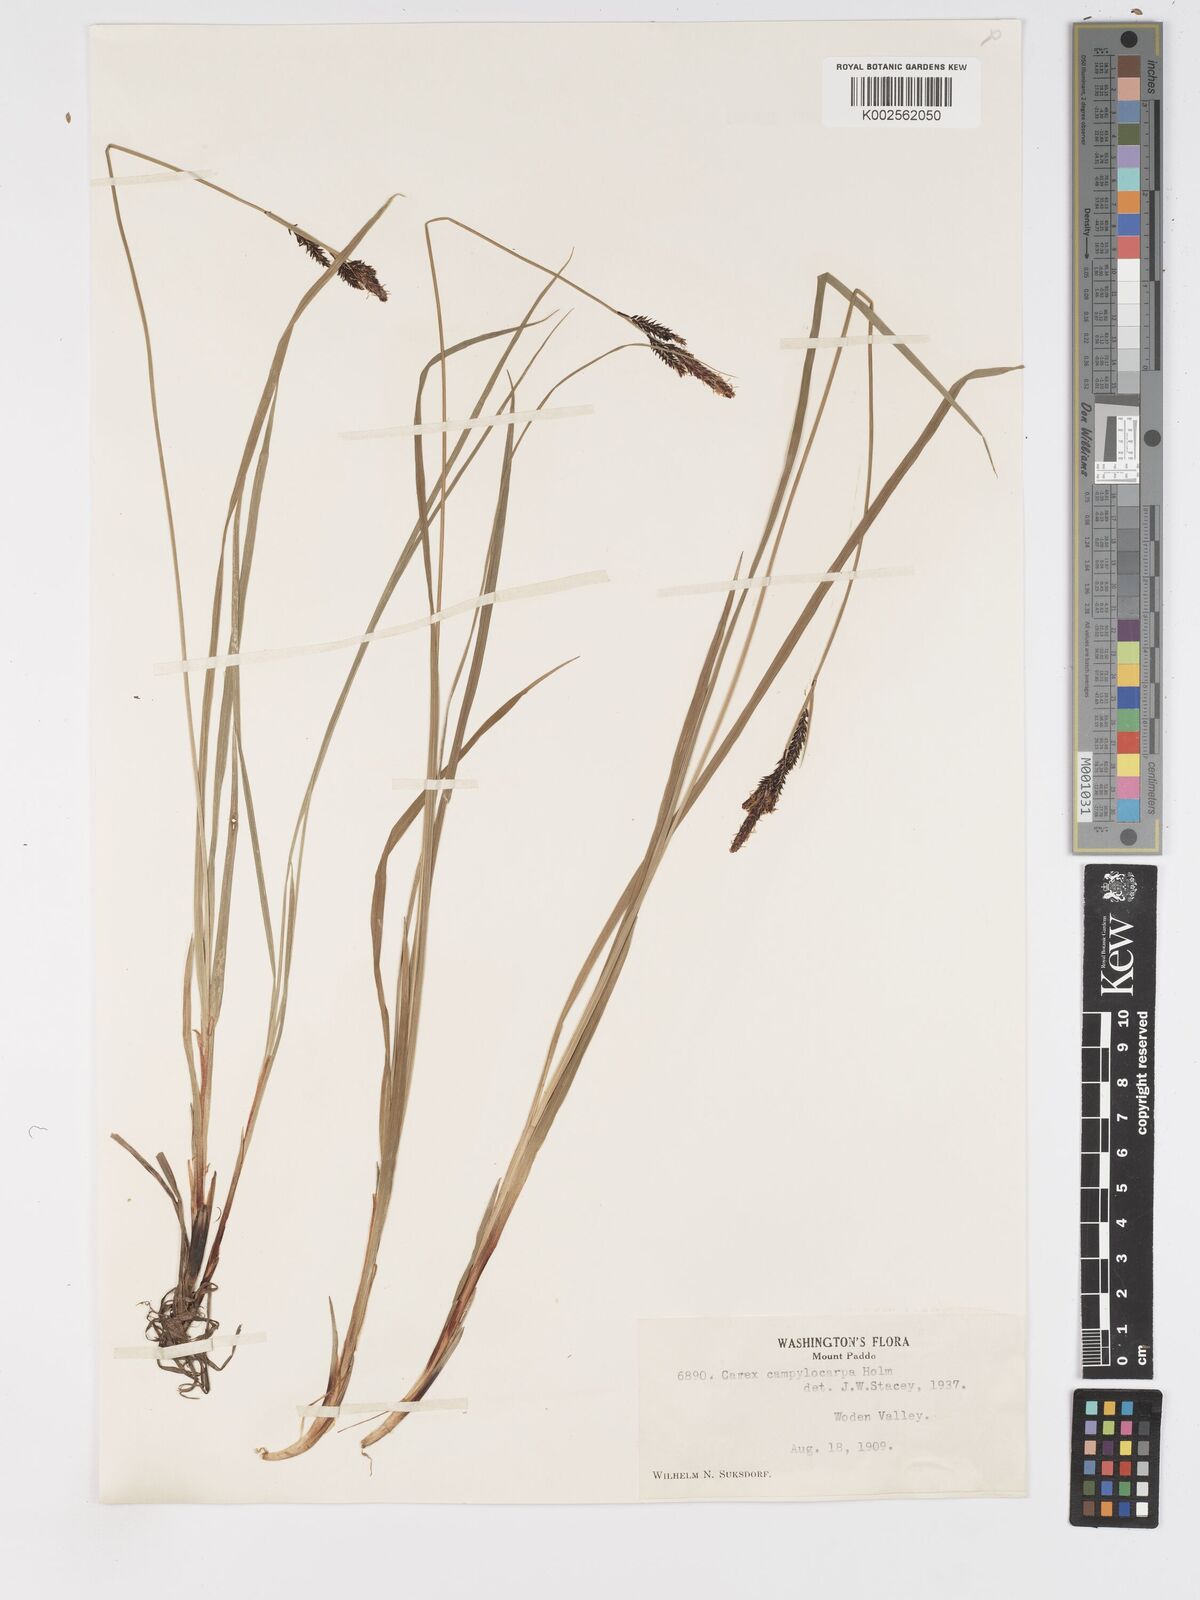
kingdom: Plantae
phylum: Tracheophyta
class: Liliopsida
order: Poales
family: Cyperaceae
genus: Carex
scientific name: Carex scopulorum
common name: Holm's rocky mountain sedge
